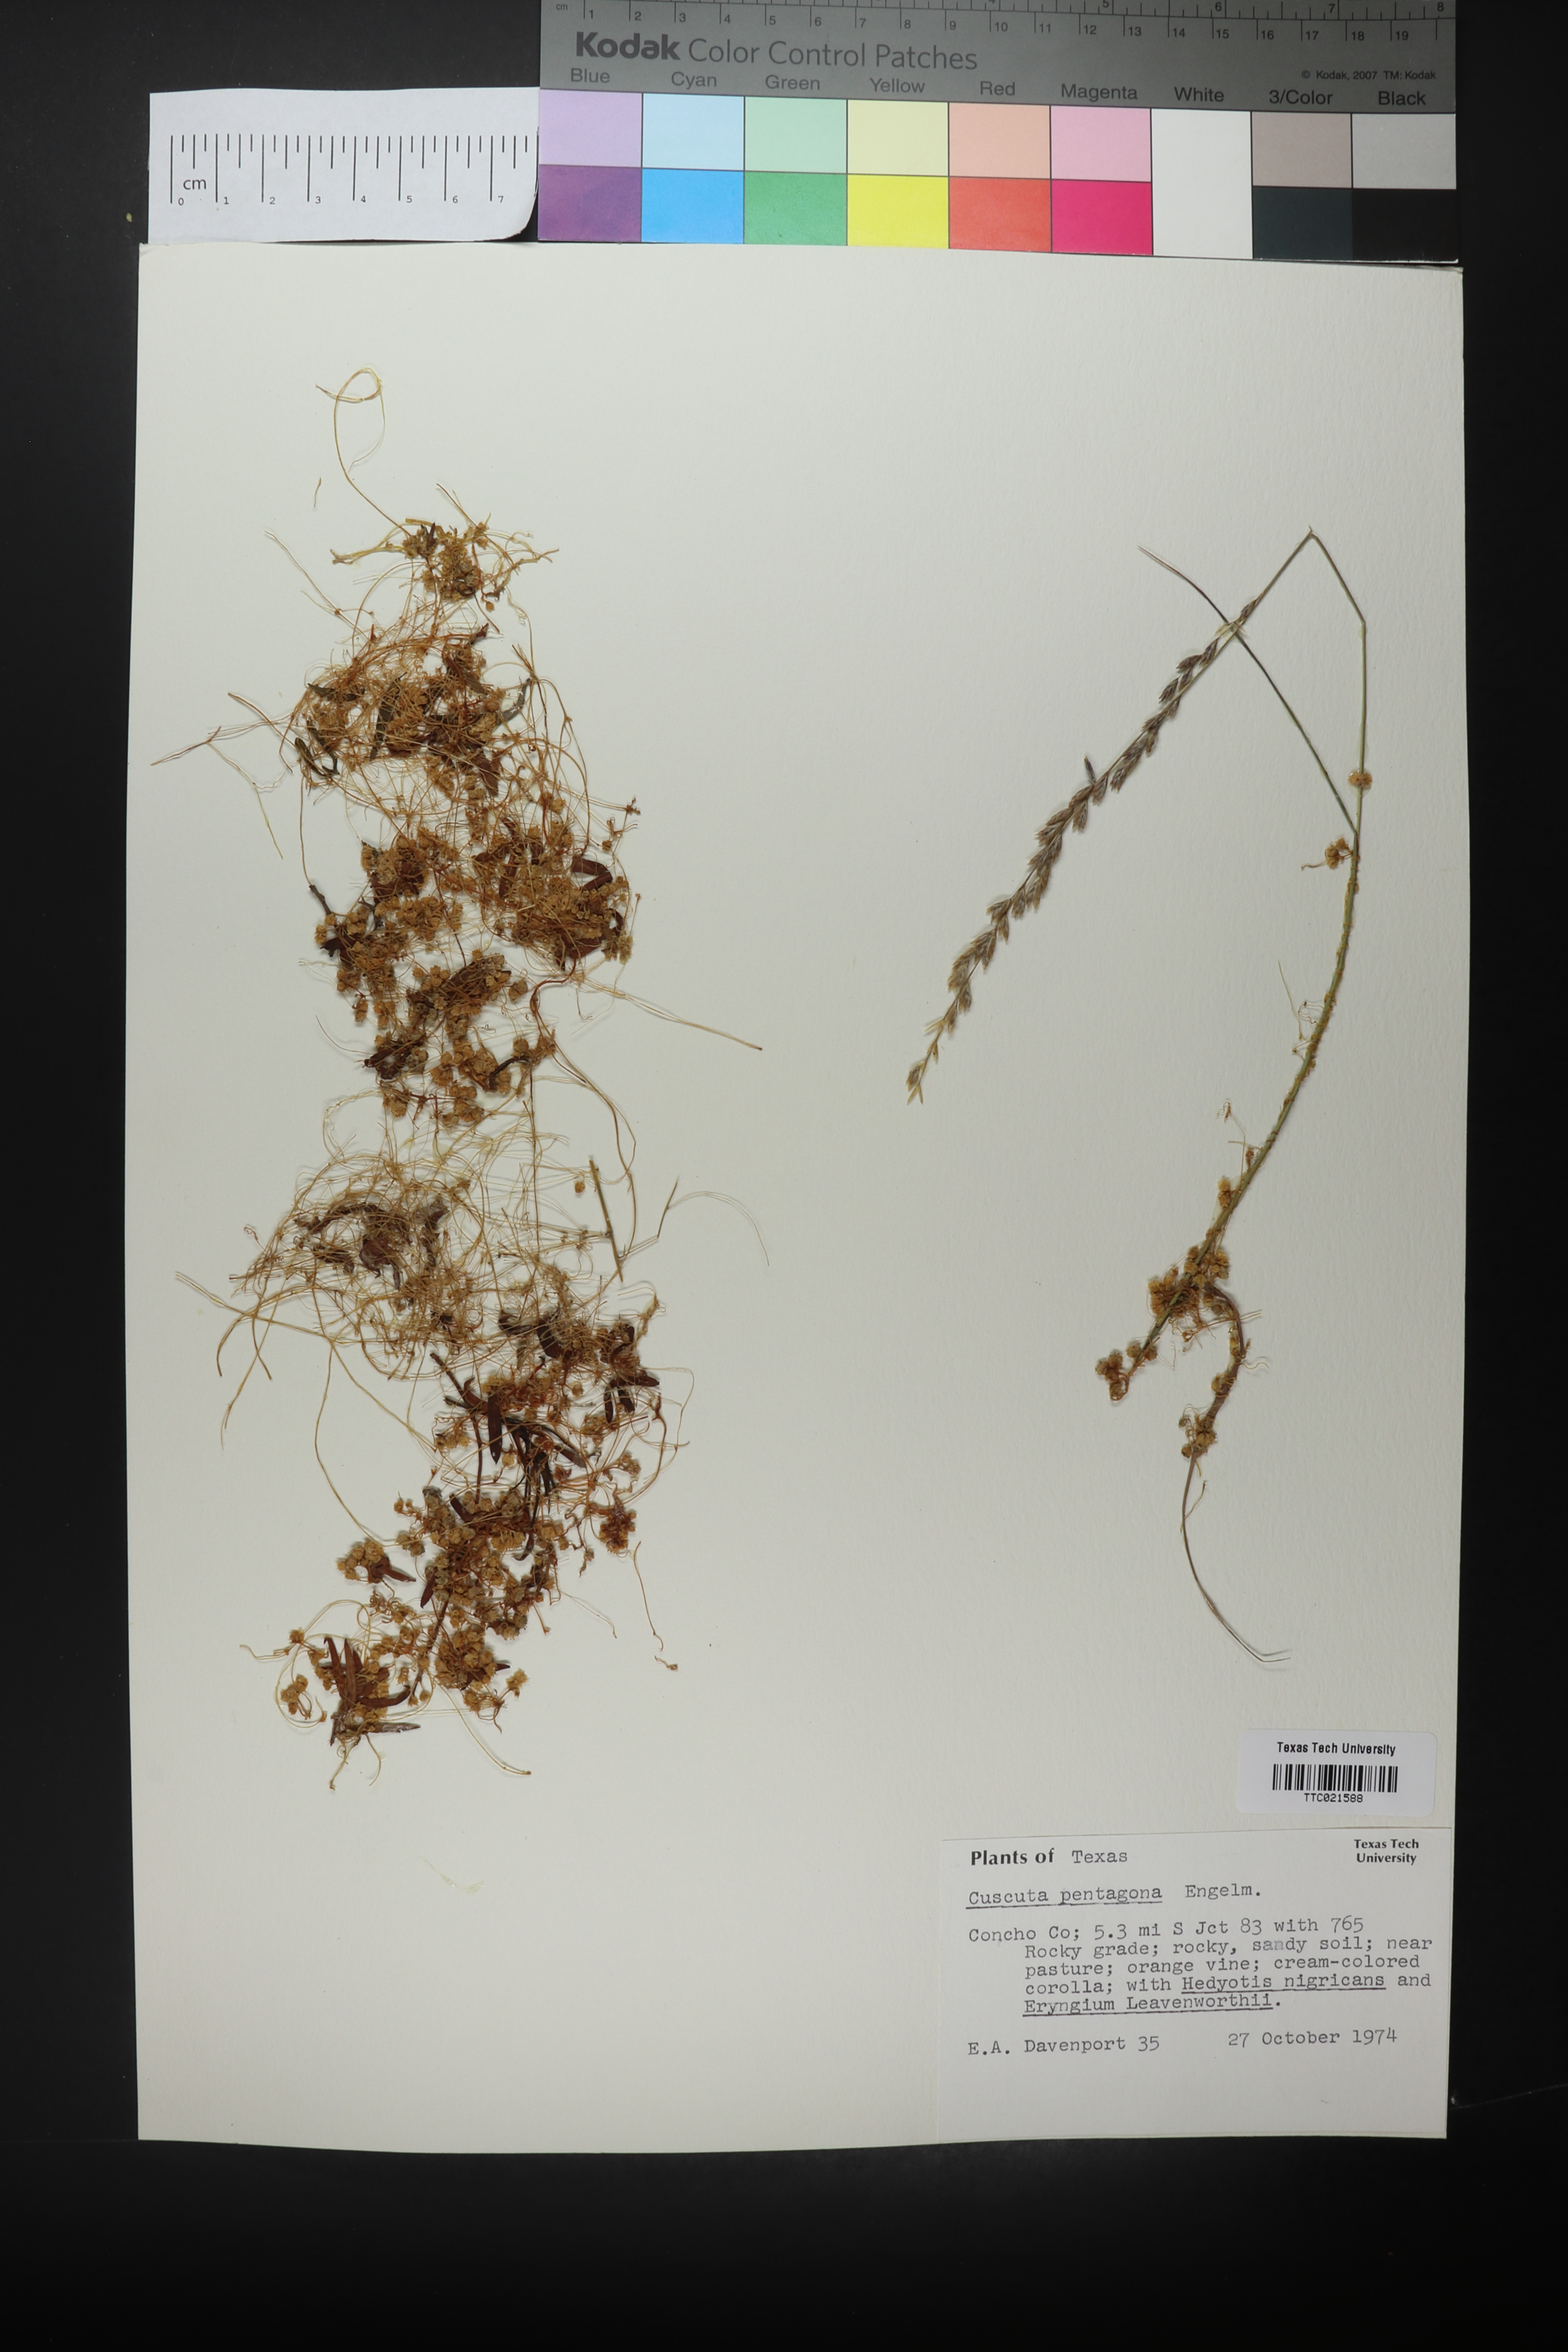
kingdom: Plantae
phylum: Tracheophyta
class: Magnoliopsida
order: Solanales
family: Convolvulaceae
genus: Cuscuta
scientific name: Cuscuta pentagona
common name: Fiveangled dodder
